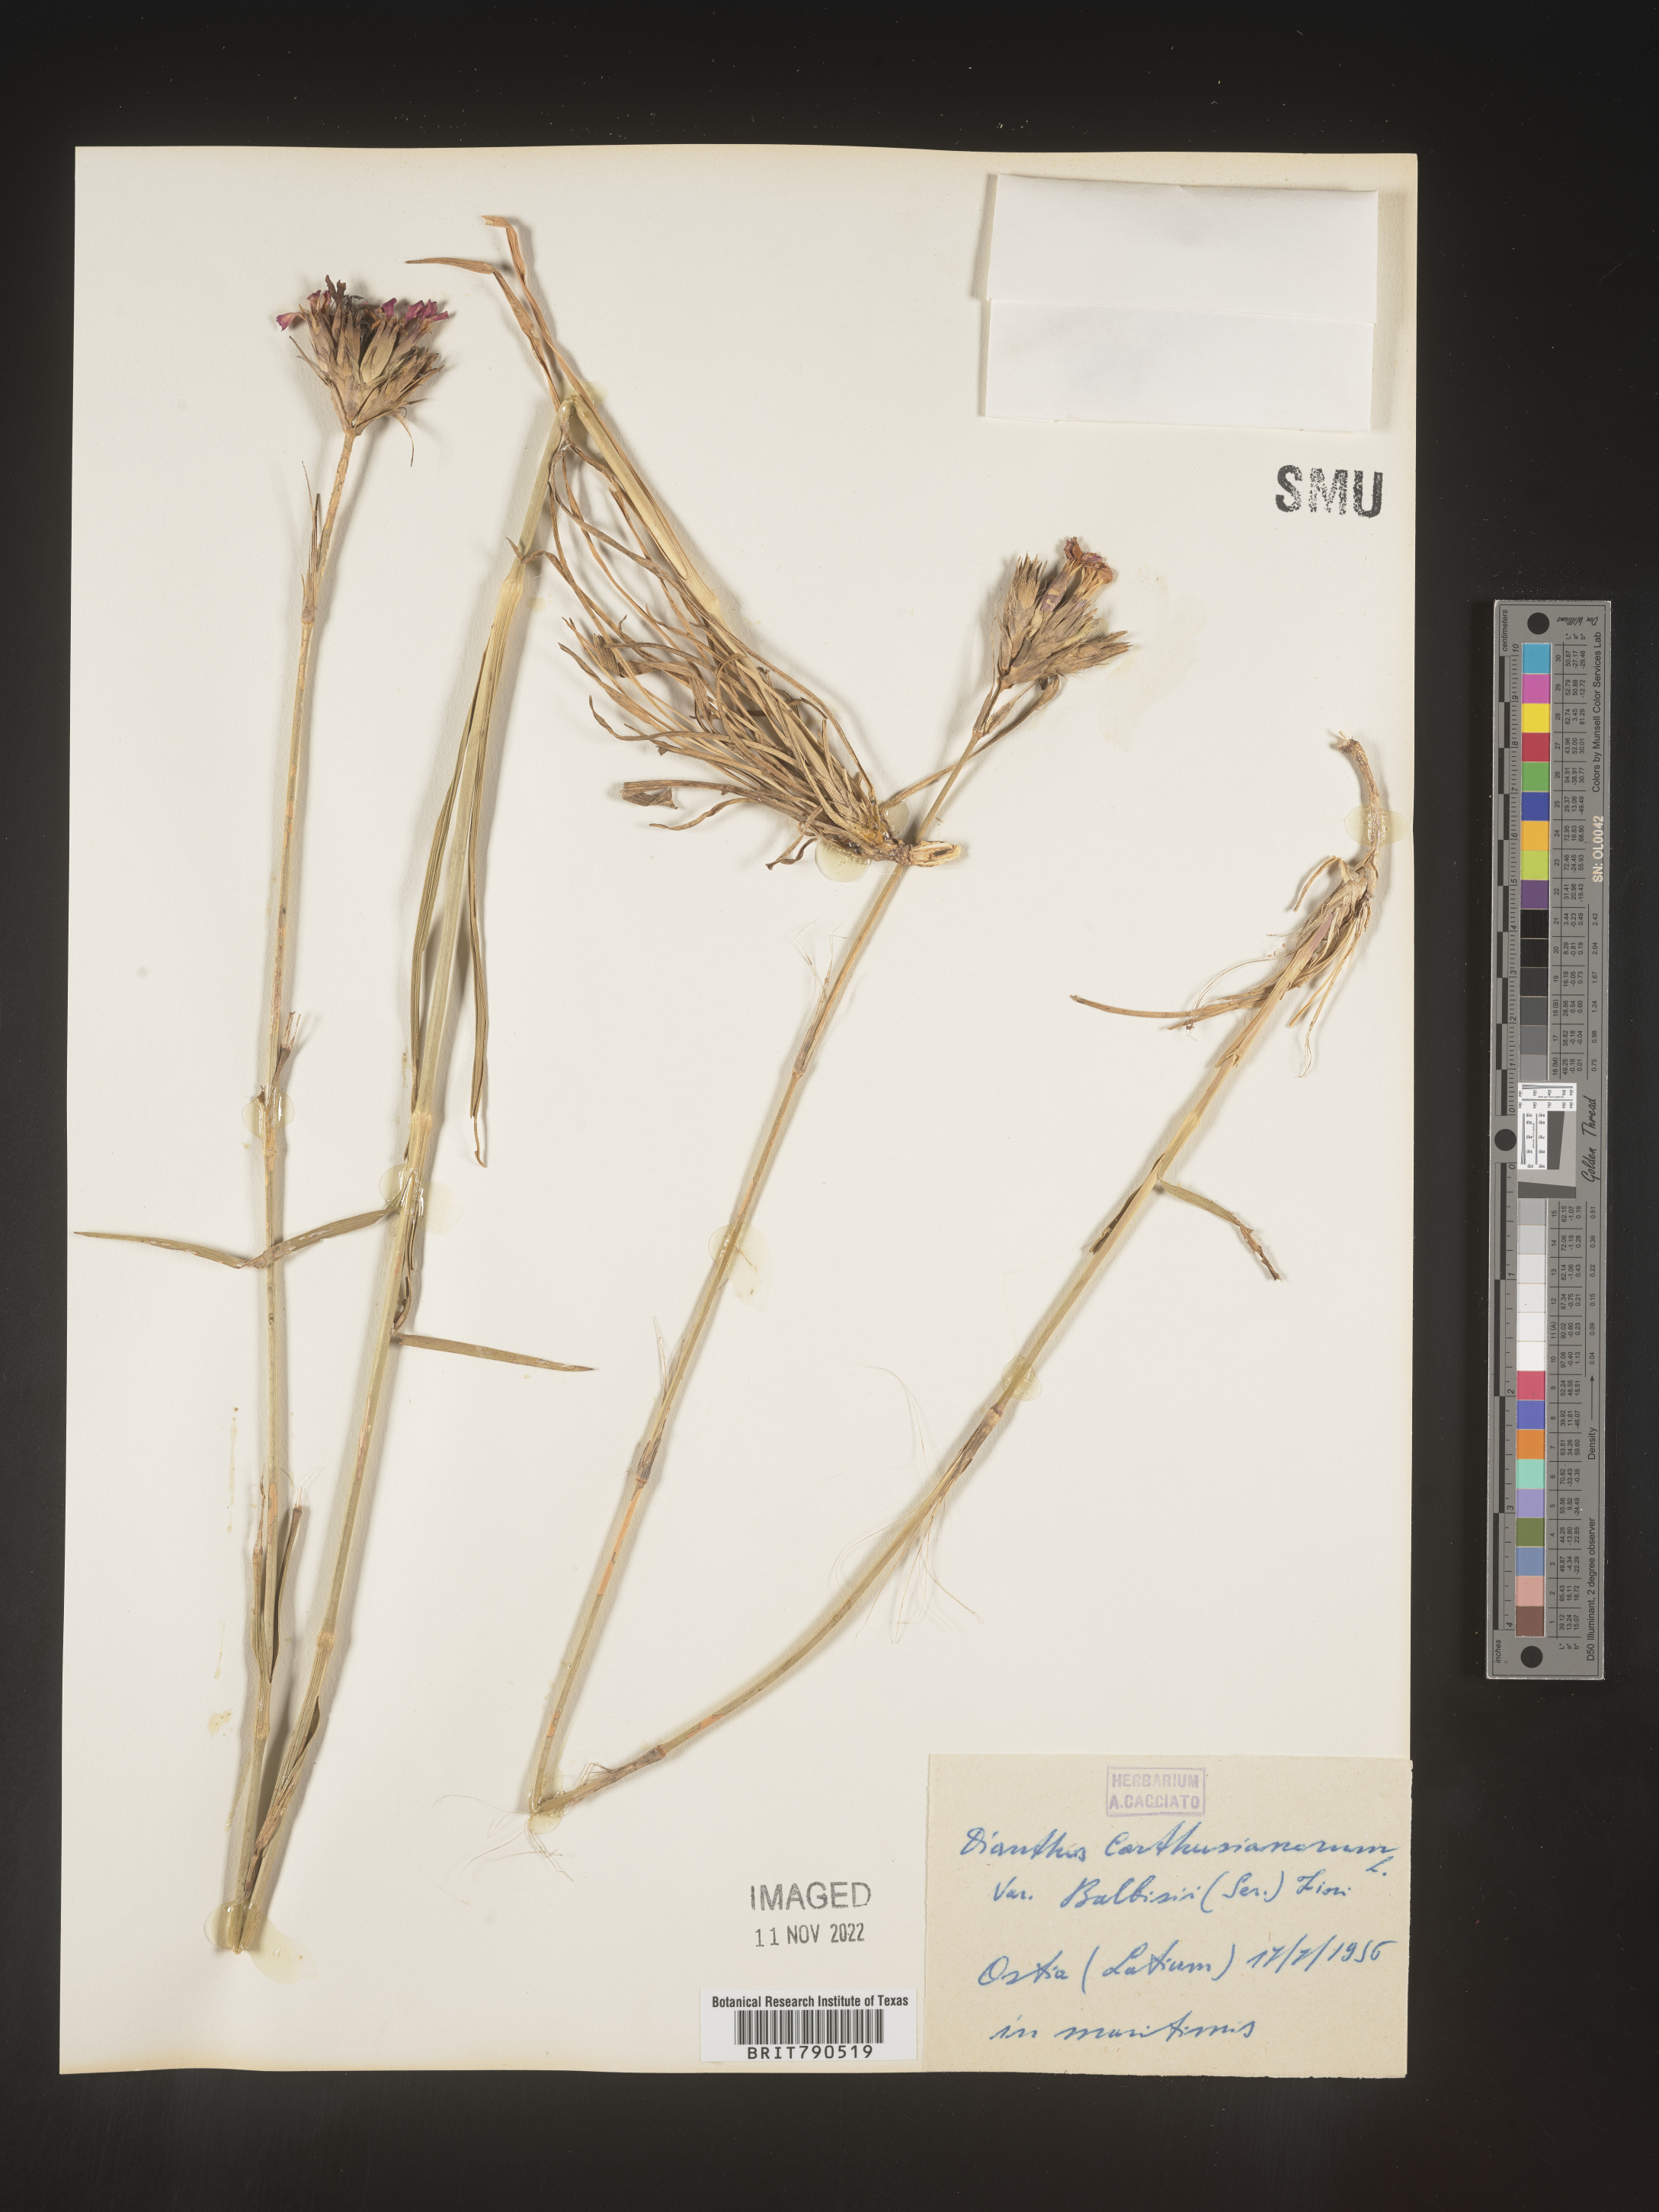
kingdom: Plantae
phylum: Tracheophyta
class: Magnoliopsida
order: Caryophyllales
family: Caryophyllaceae
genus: Dianthus
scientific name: Dianthus carthusianorum
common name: Carthusian pink
